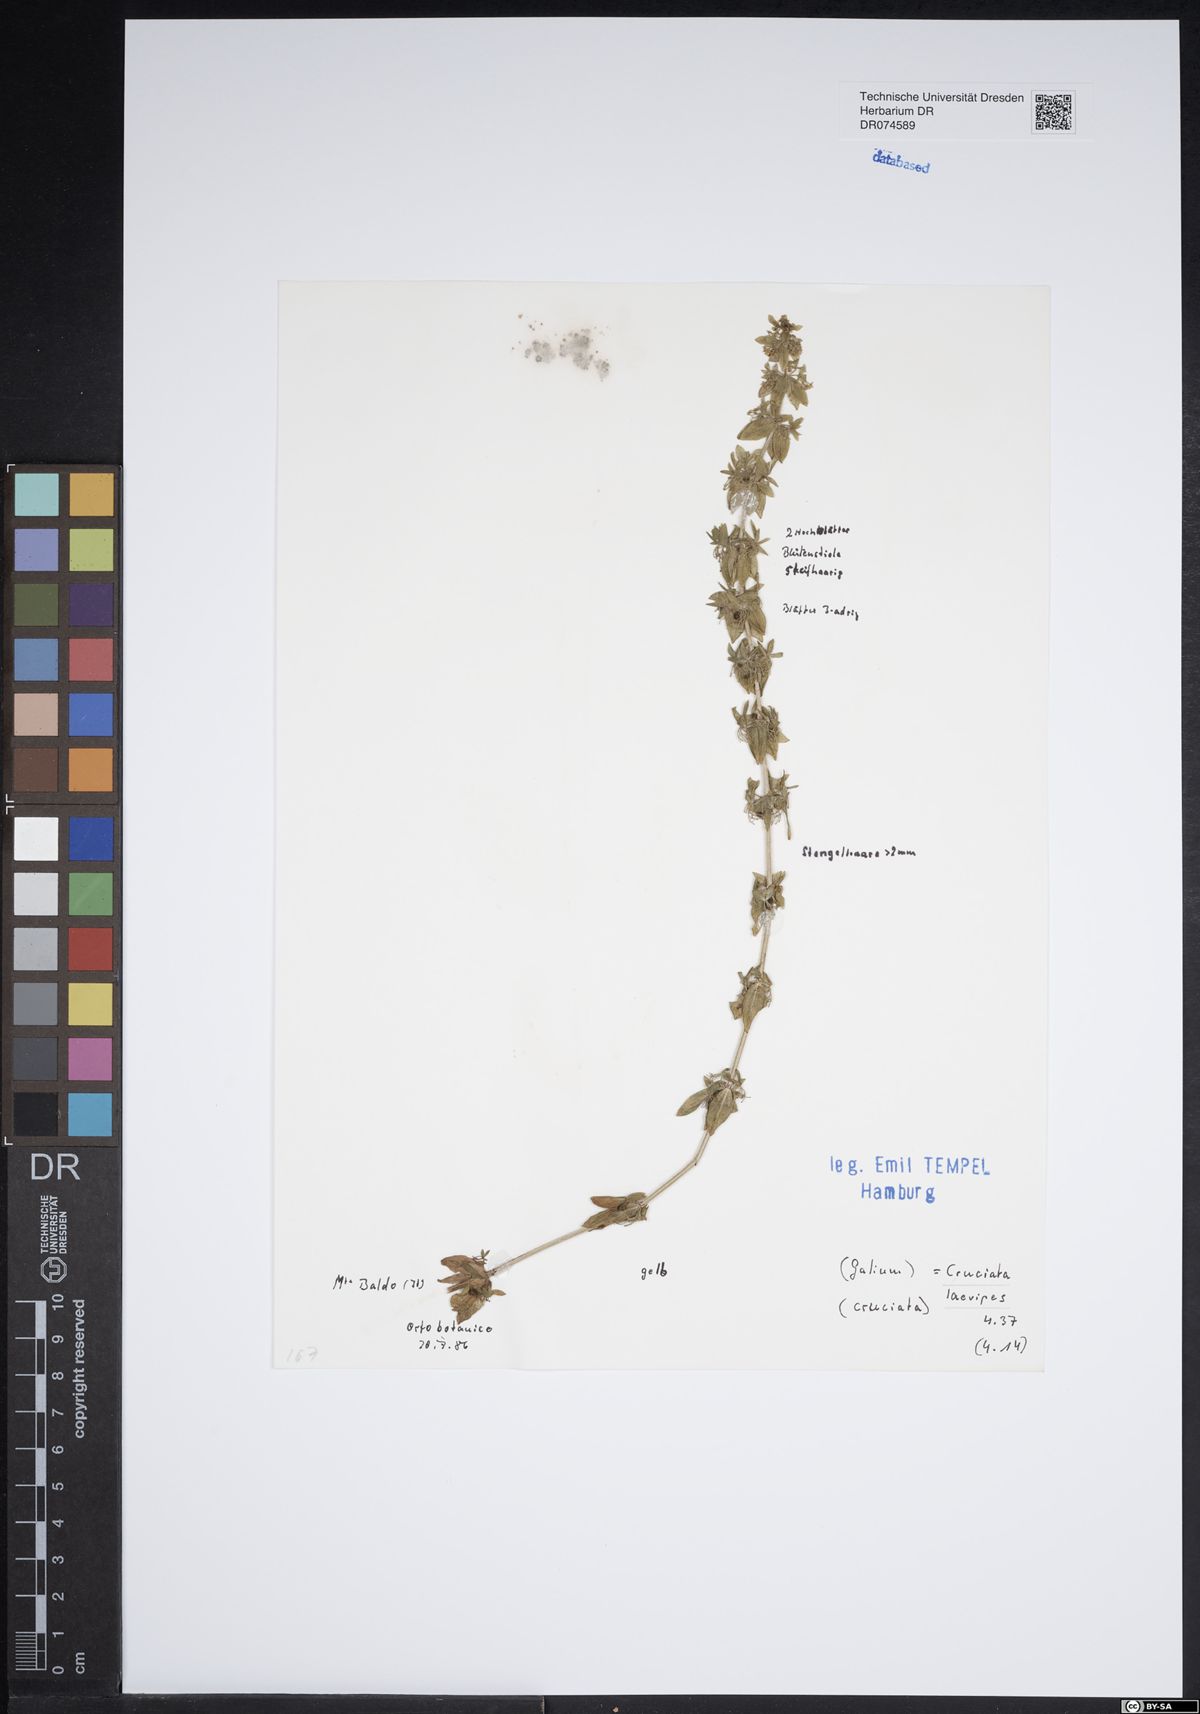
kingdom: Plantae
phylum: Tracheophyta
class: Magnoliopsida
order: Gentianales
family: Rubiaceae
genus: Cruciata
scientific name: Cruciata laevipes
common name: Crosswort
